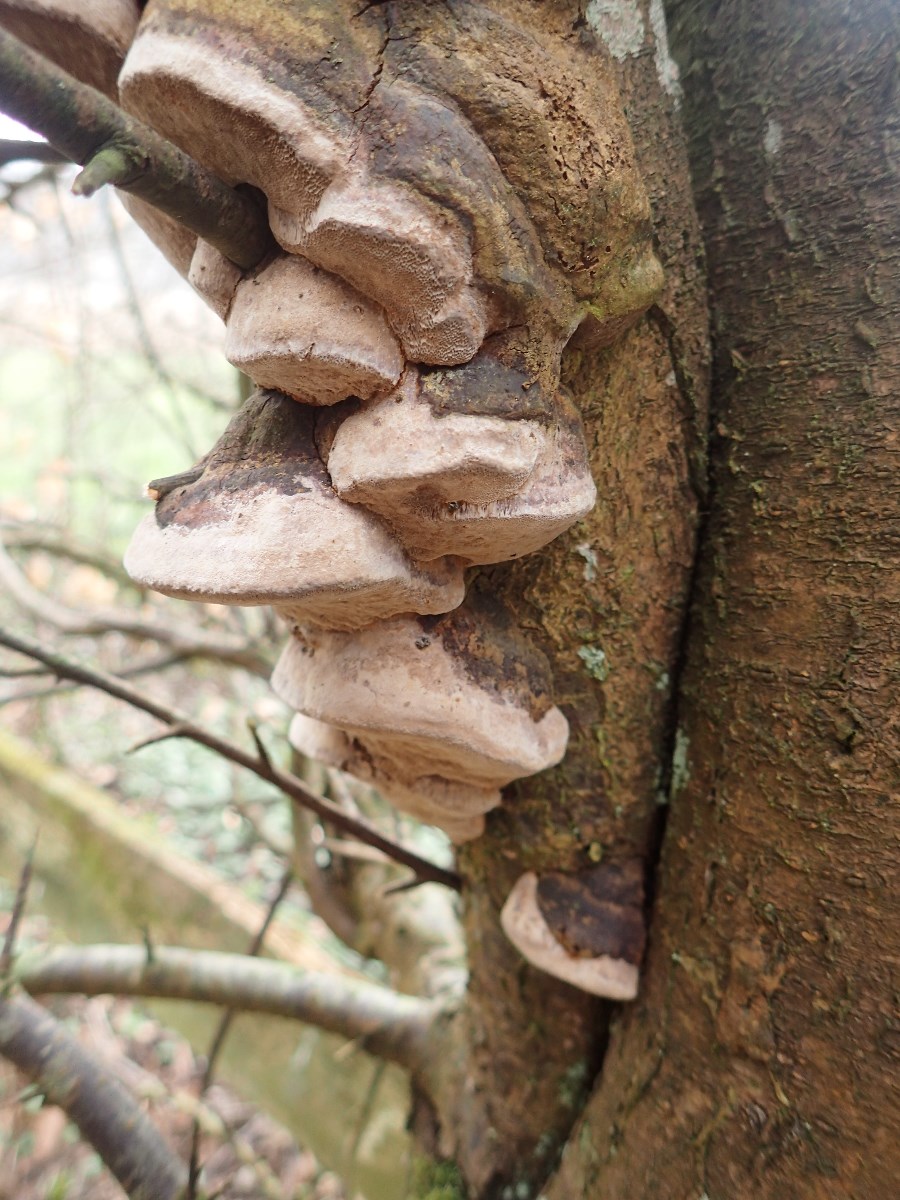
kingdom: Fungi
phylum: Basidiomycota
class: Agaricomycetes
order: Hymenochaetales
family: Hymenochaetaceae
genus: Phellinus
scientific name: Phellinus pomaceus
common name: blomme-ildporesvamp
